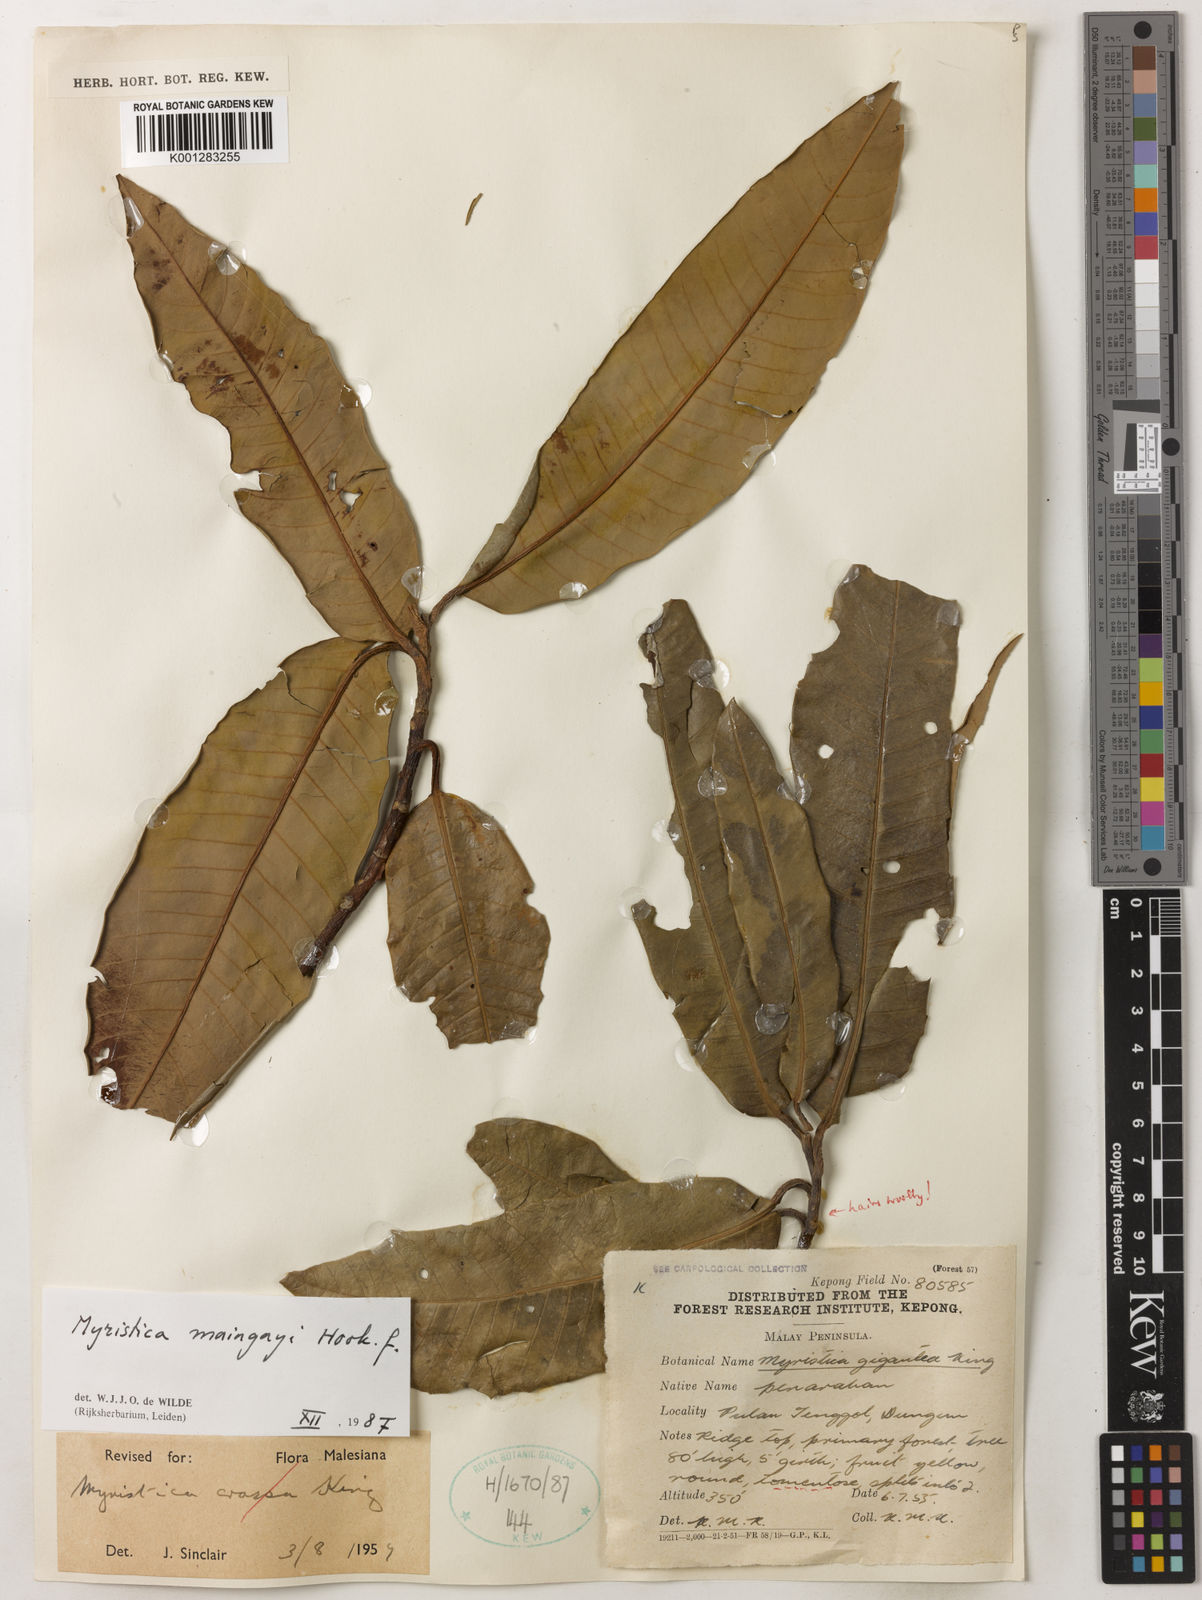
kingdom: Plantae
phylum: Tracheophyta
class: Magnoliopsida
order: Magnoliales
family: Myristicaceae
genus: Myristica
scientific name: Myristica maingayi
